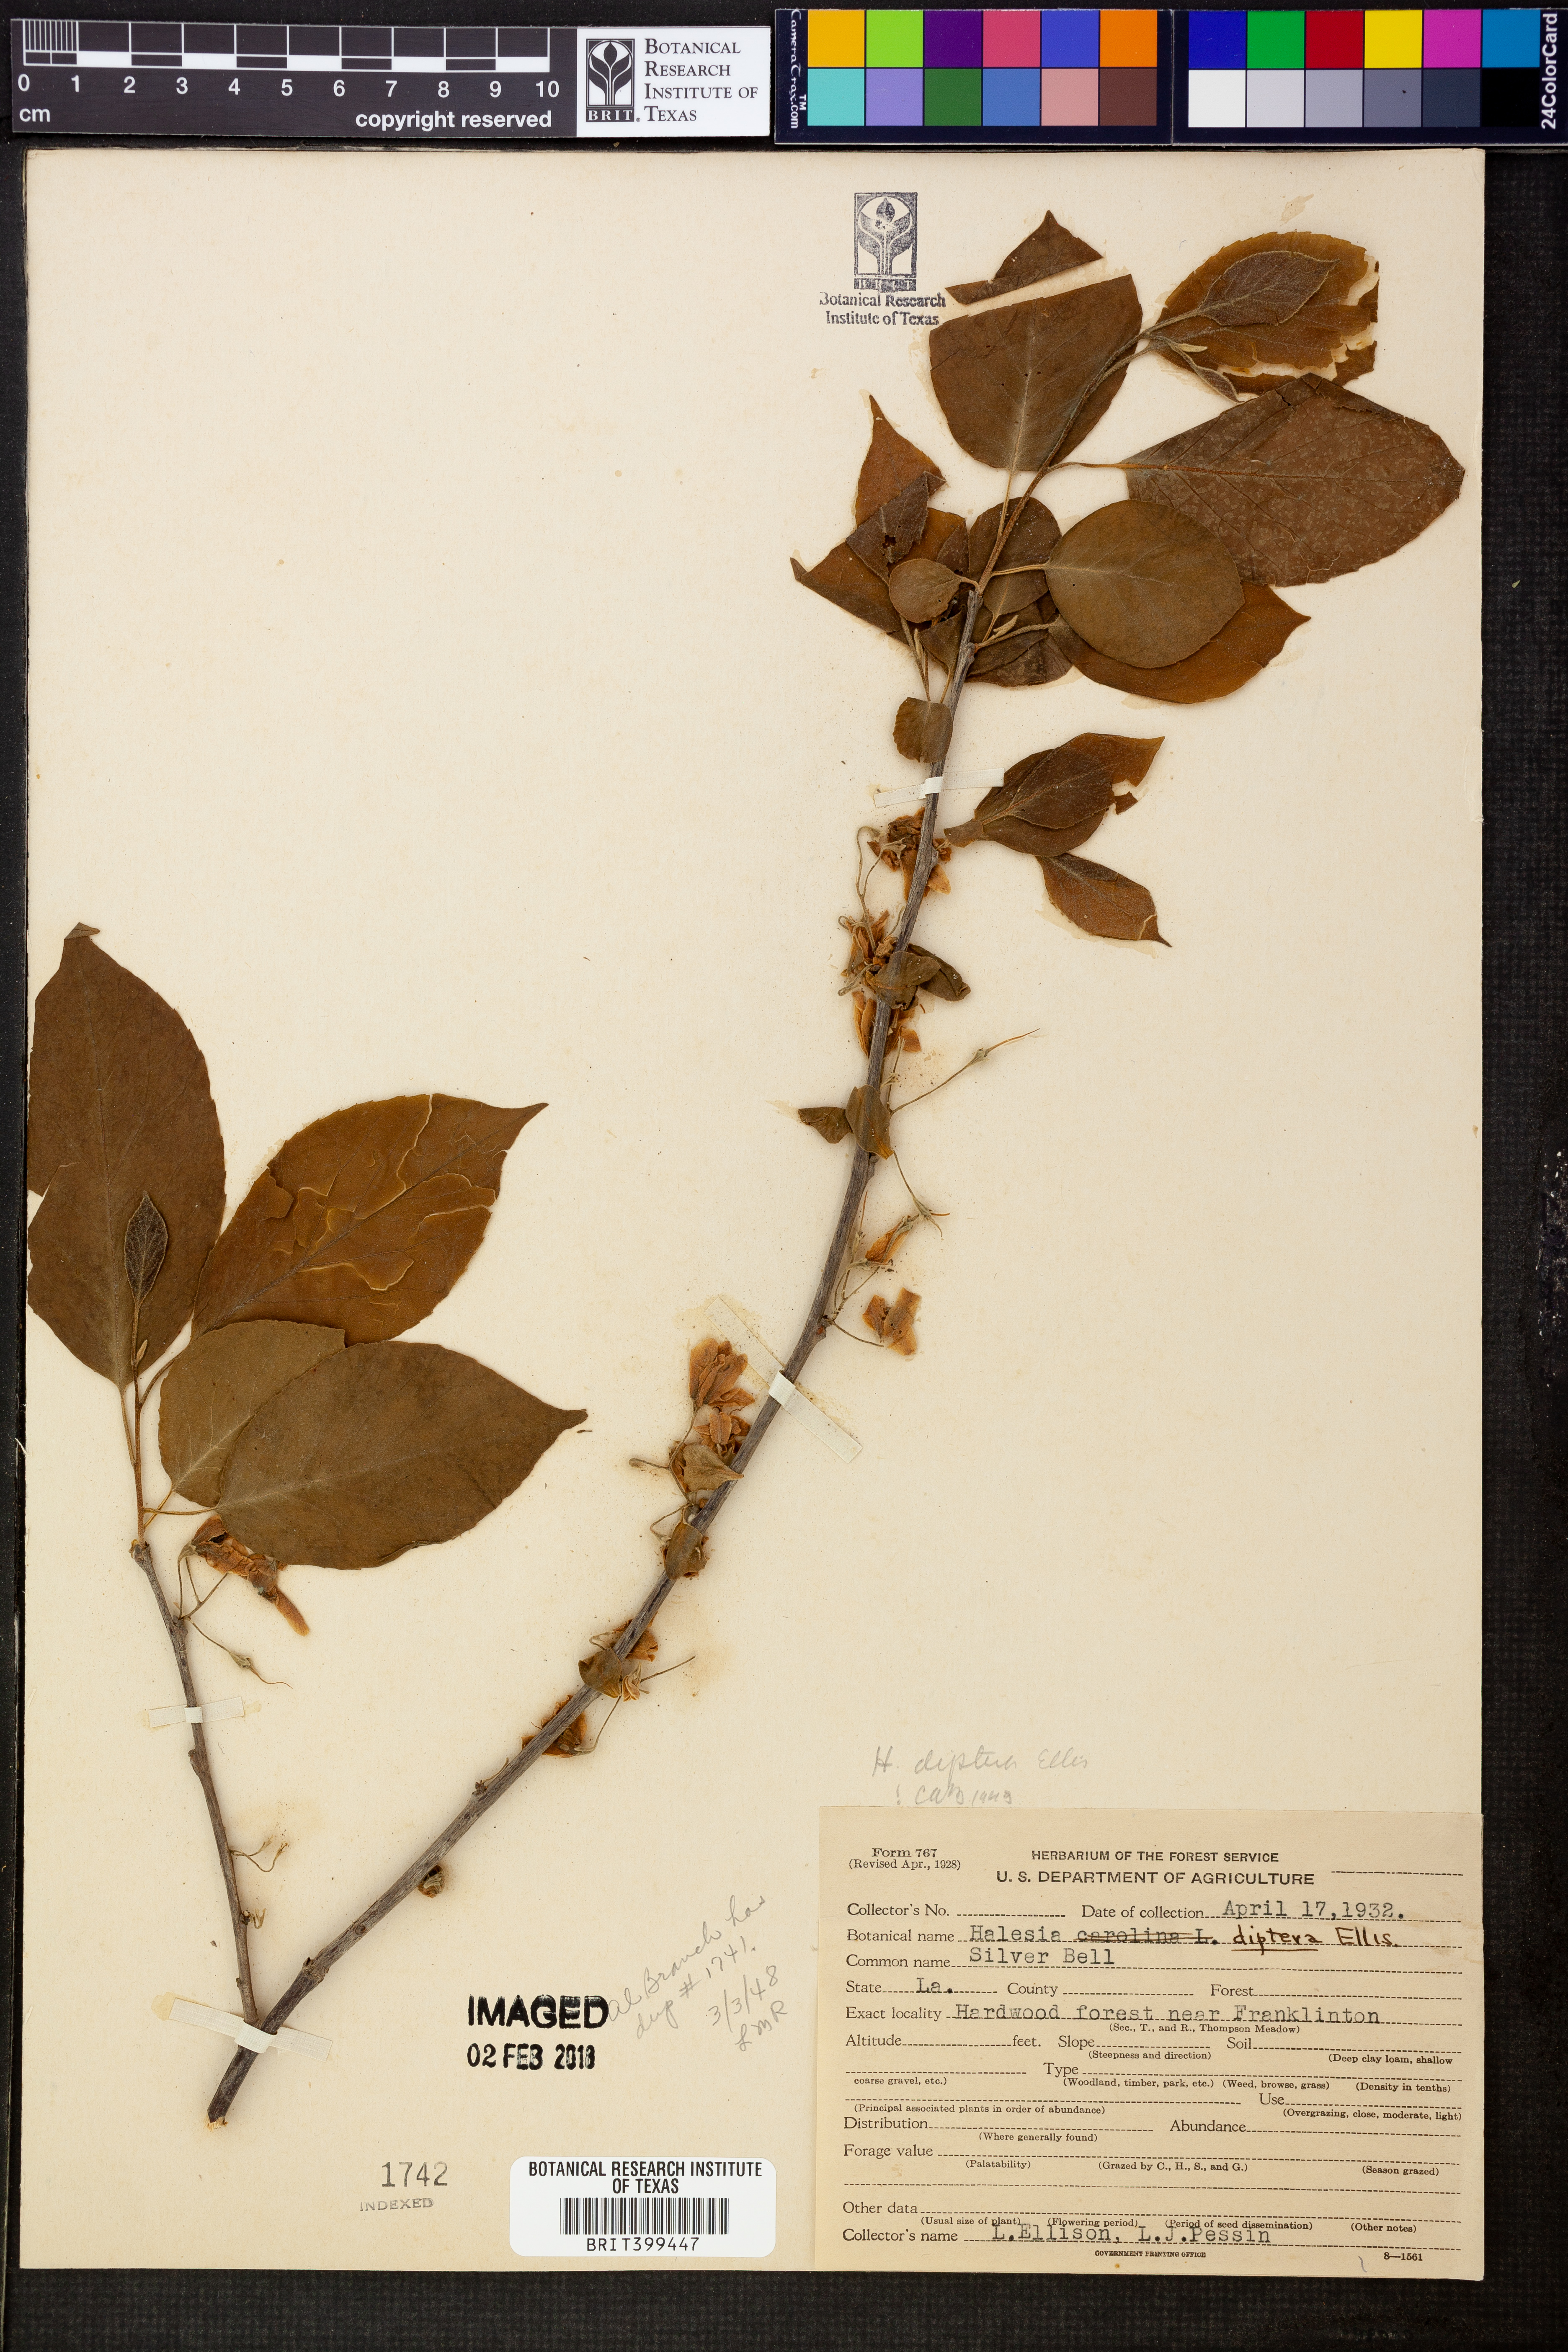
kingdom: Plantae
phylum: Tracheophyta
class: Magnoliopsida
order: Ericales
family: Styracaceae
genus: Halesia
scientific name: Halesia diptera
